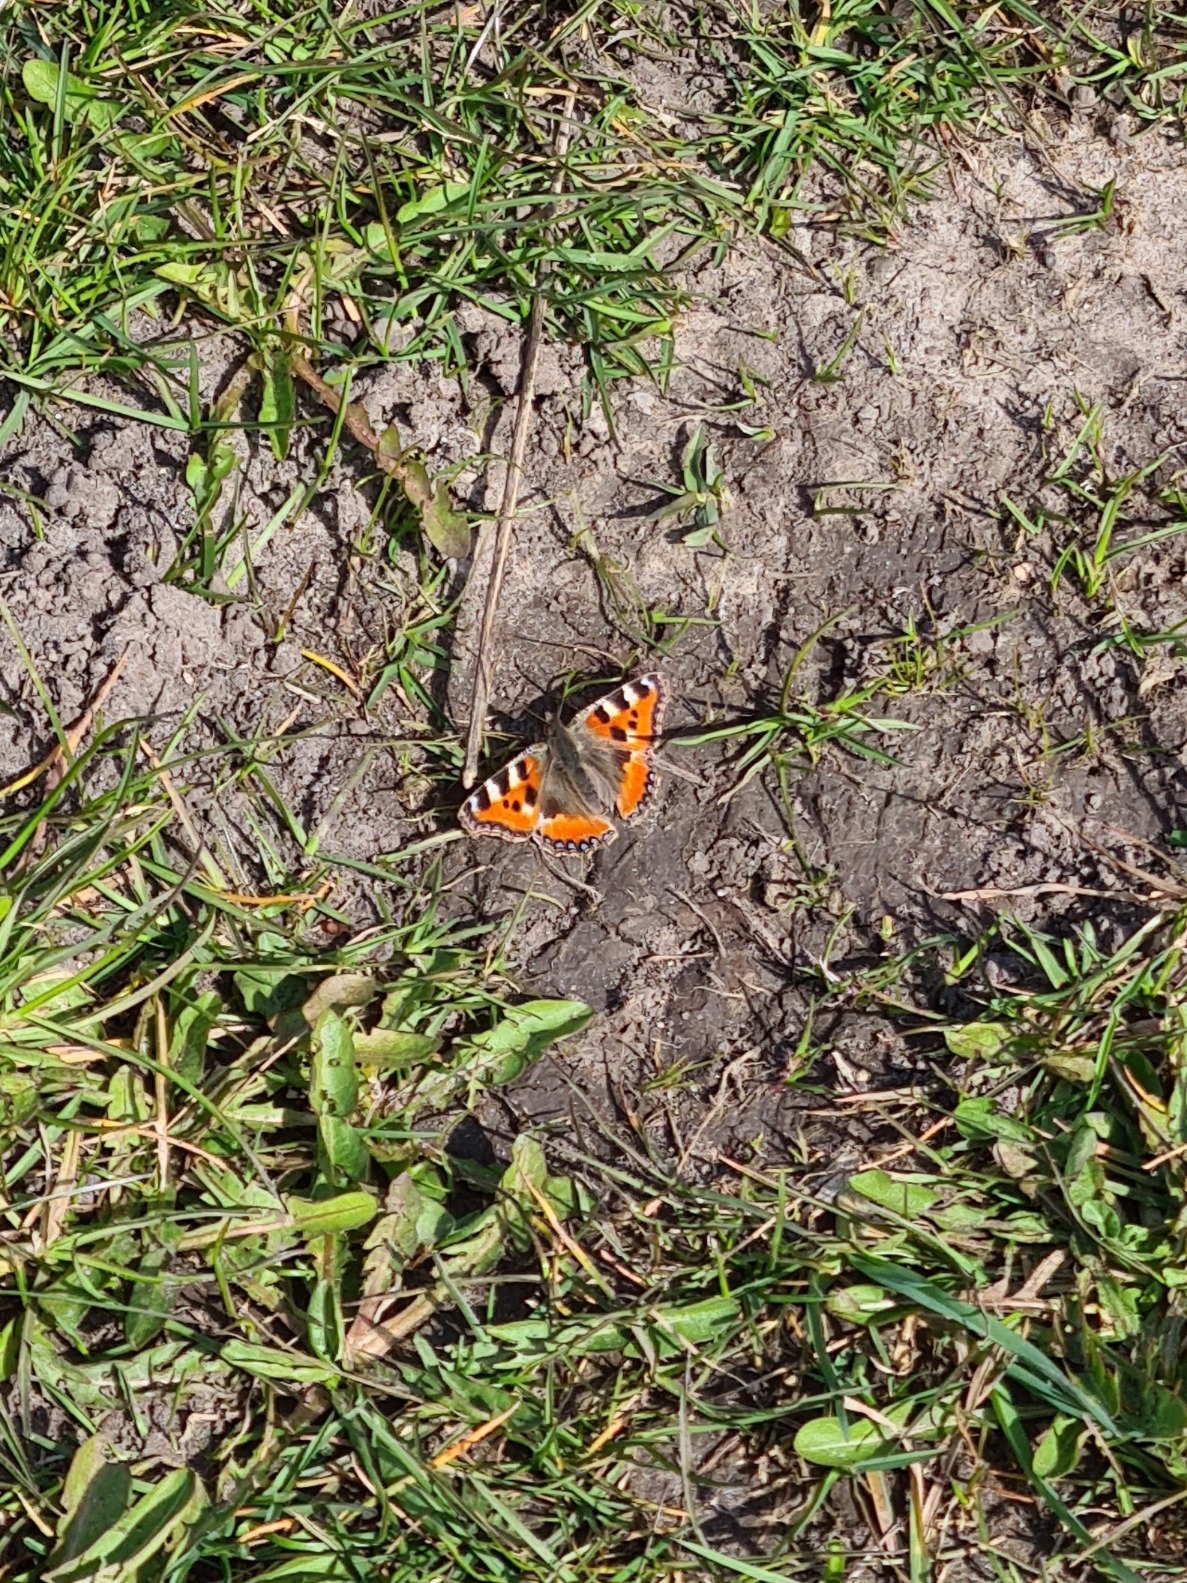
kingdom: Animalia
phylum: Arthropoda
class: Insecta
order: Lepidoptera
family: Nymphalidae
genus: Aglais
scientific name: Aglais urticae
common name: Nældens takvinge
